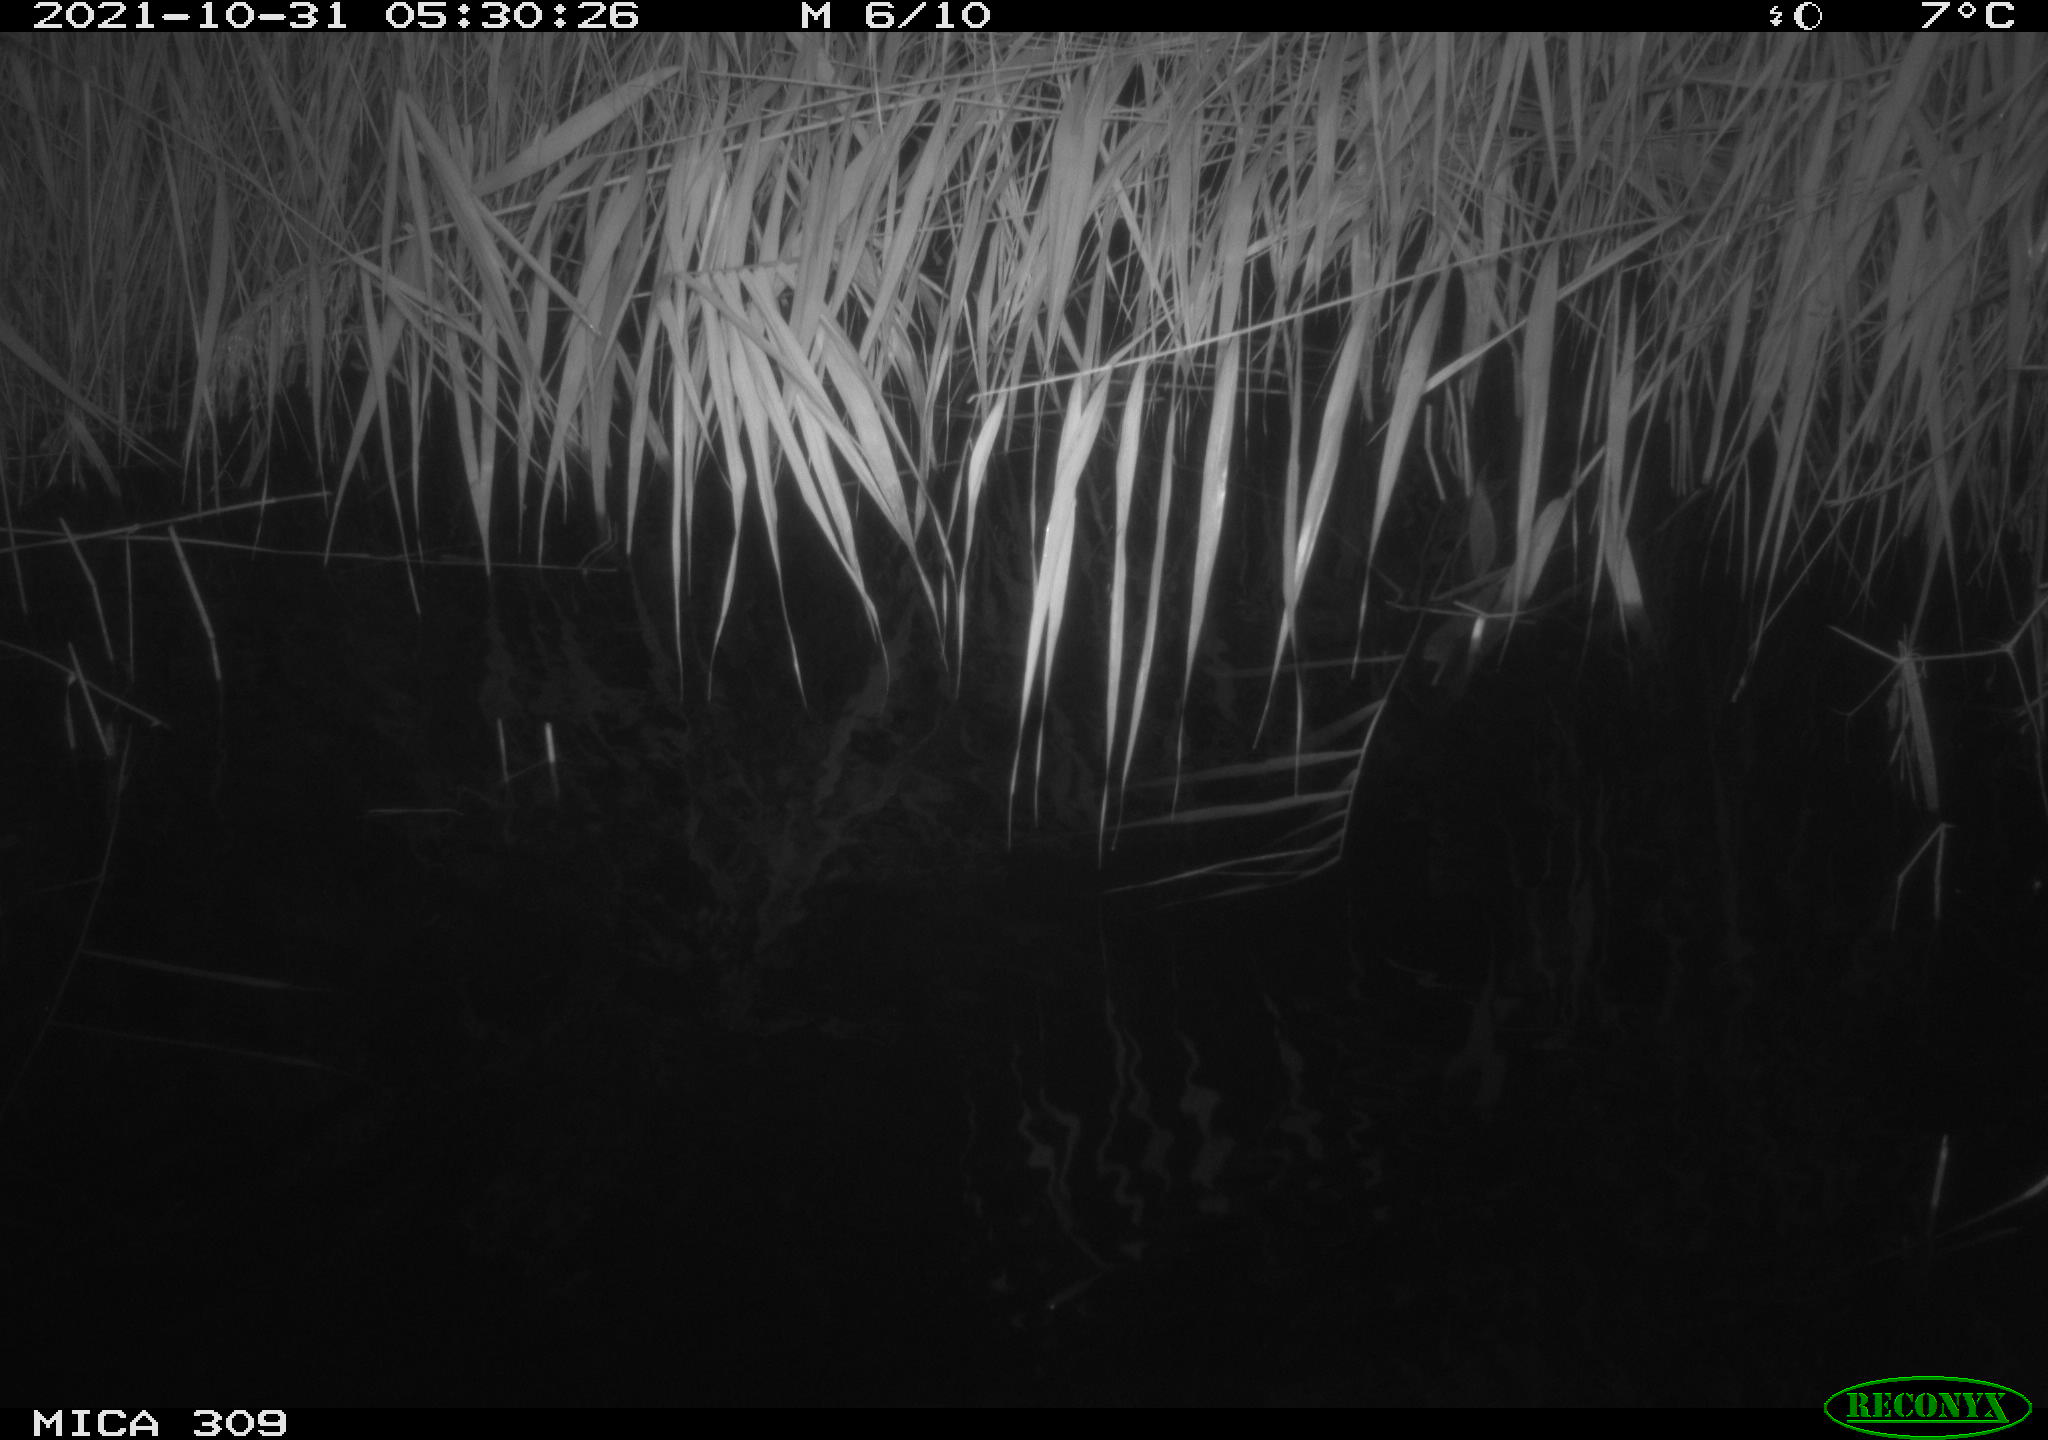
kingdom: Animalia
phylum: Chordata
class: Mammalia
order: Rodentia
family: Muridae
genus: Rattus
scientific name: Rattus norvegicus
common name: Brown rat
